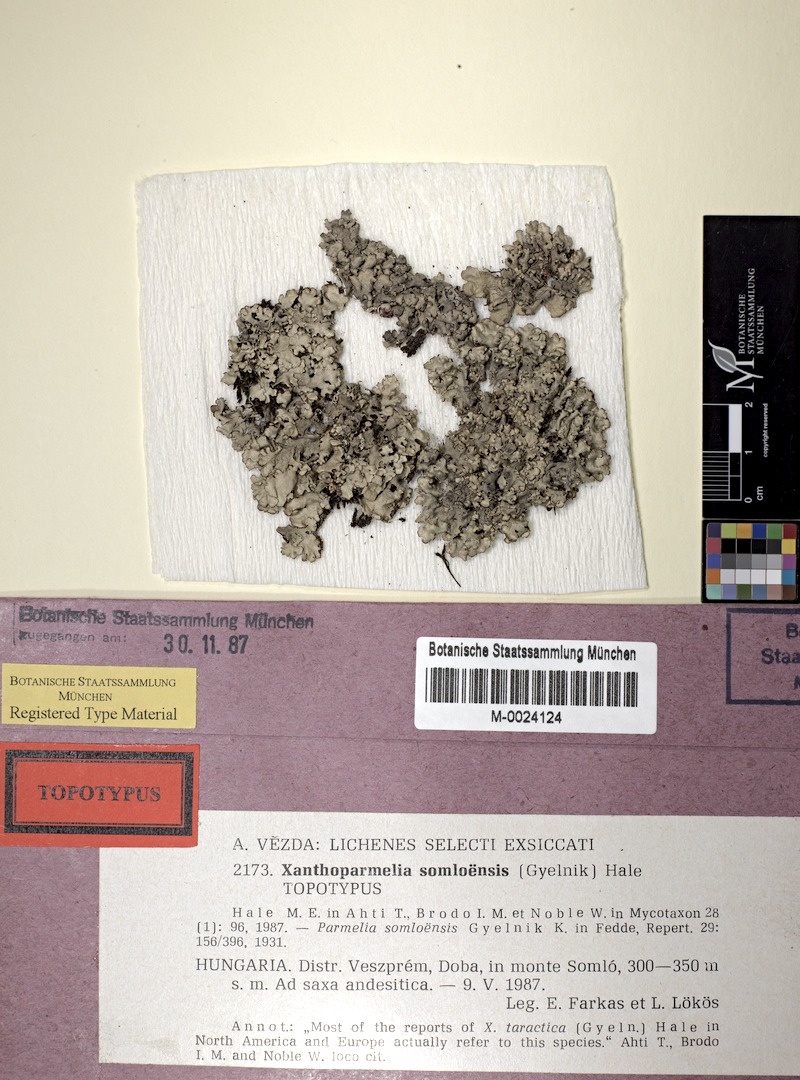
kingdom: Fungi
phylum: Ascomycota
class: Lecanoromycetes
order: Lecanorales
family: Parmeliaceae
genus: Xanthoparmelia
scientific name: Xanthoparmelia stenophylla
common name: Shingled rock shield
